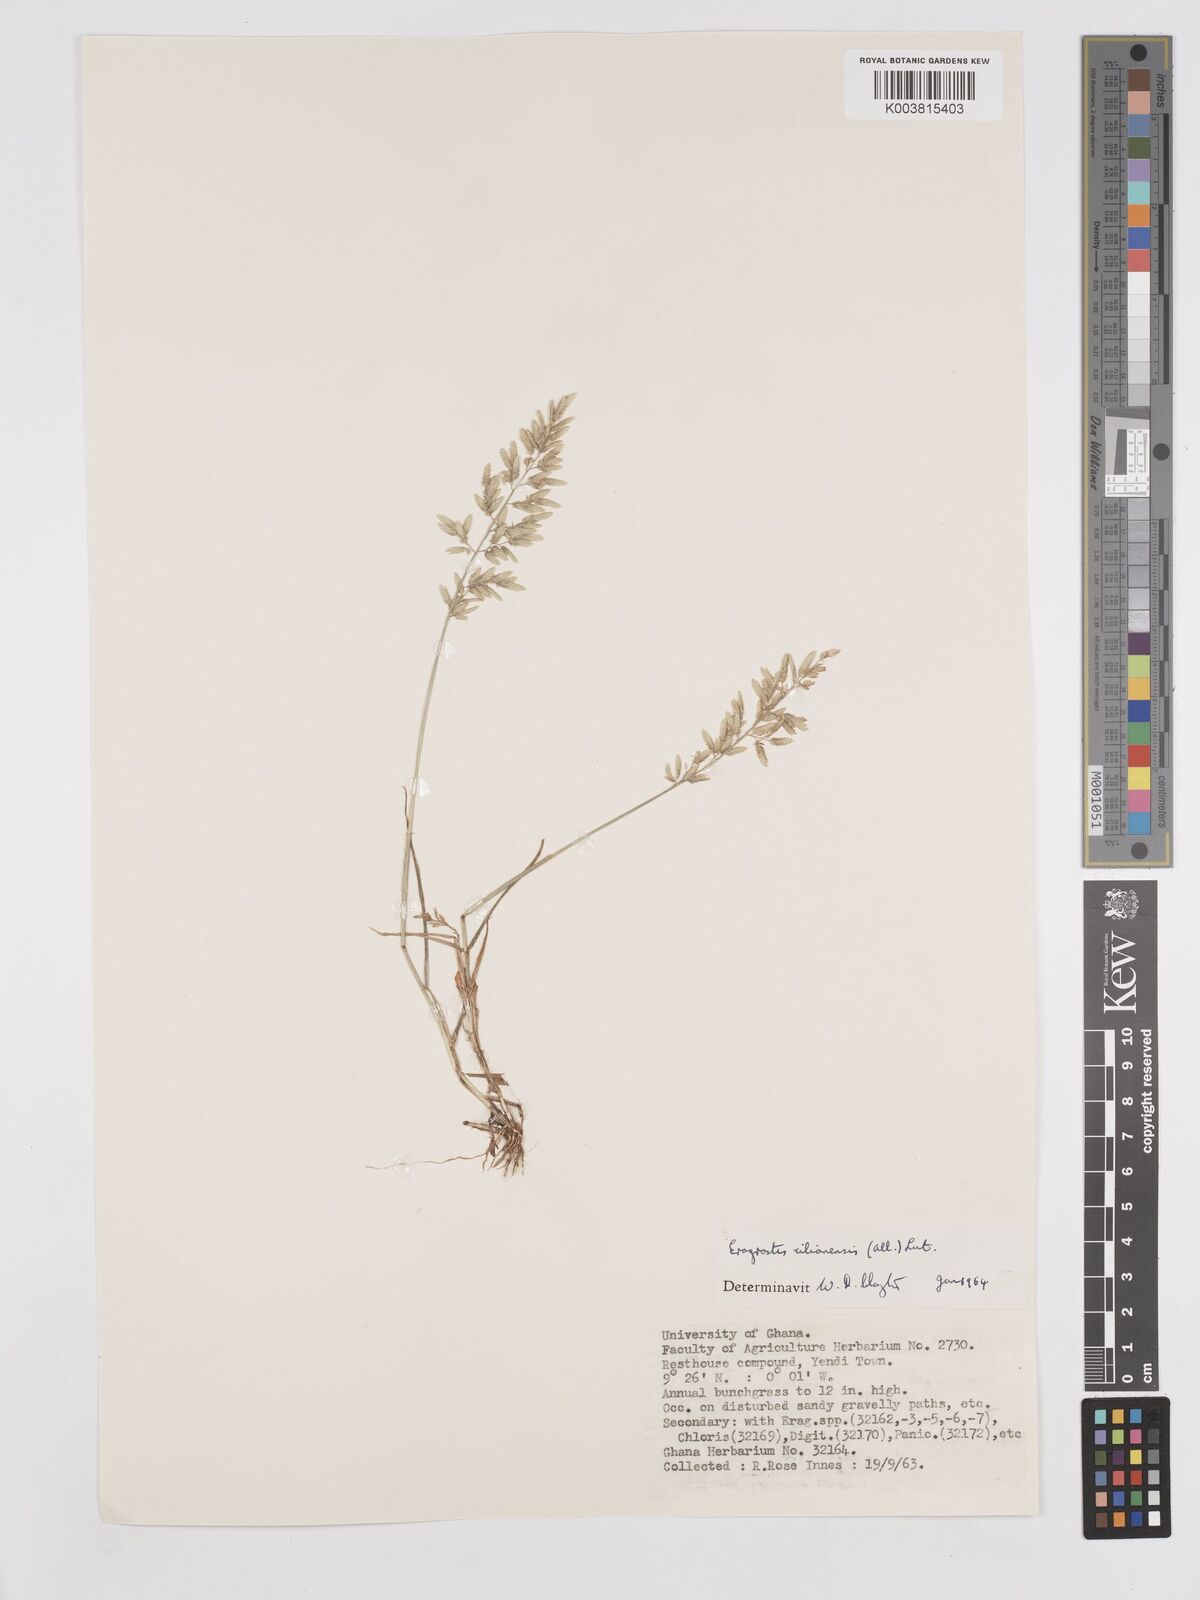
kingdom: Plantae
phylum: Tracheophyta
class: Liliopsida
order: Poales
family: Poaceae
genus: Eragrostis
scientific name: Eragrostis cilianensis
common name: Stinkgrass
